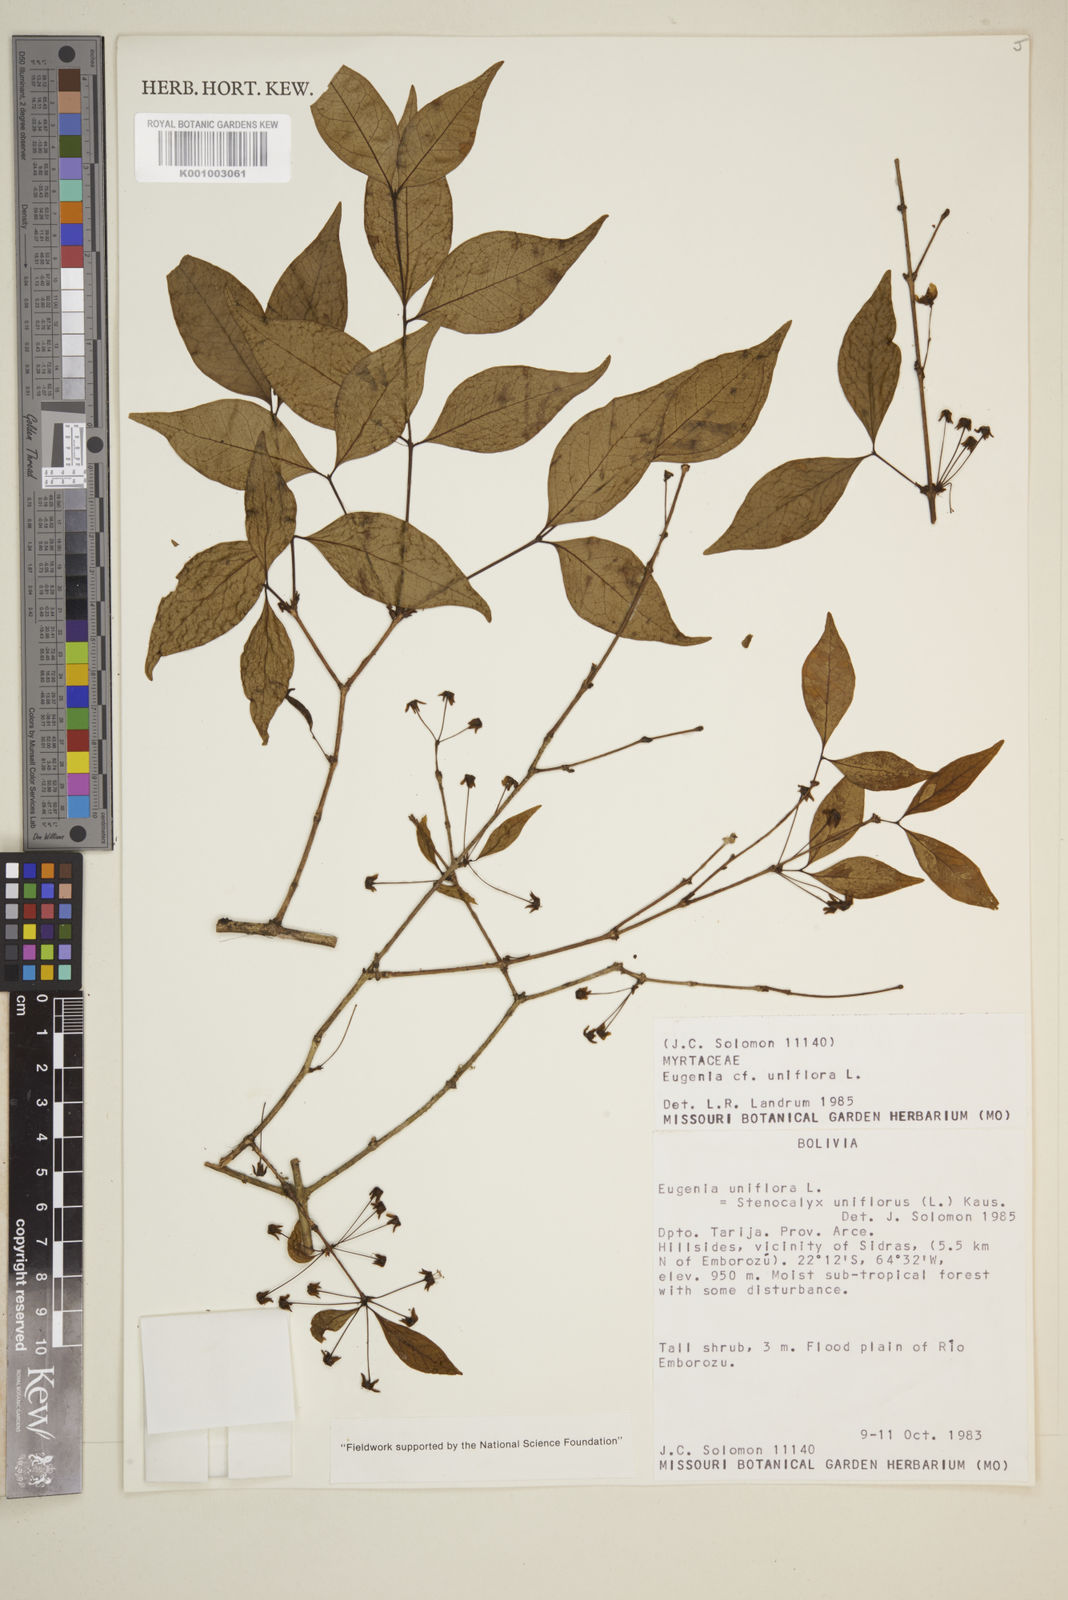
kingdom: Plantae
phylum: Tracheophyta
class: Magnoliopsida
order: Myrtales
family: Myrtaceae
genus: Eugenia
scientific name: Eugenia uniflora
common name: Surinam cherry
